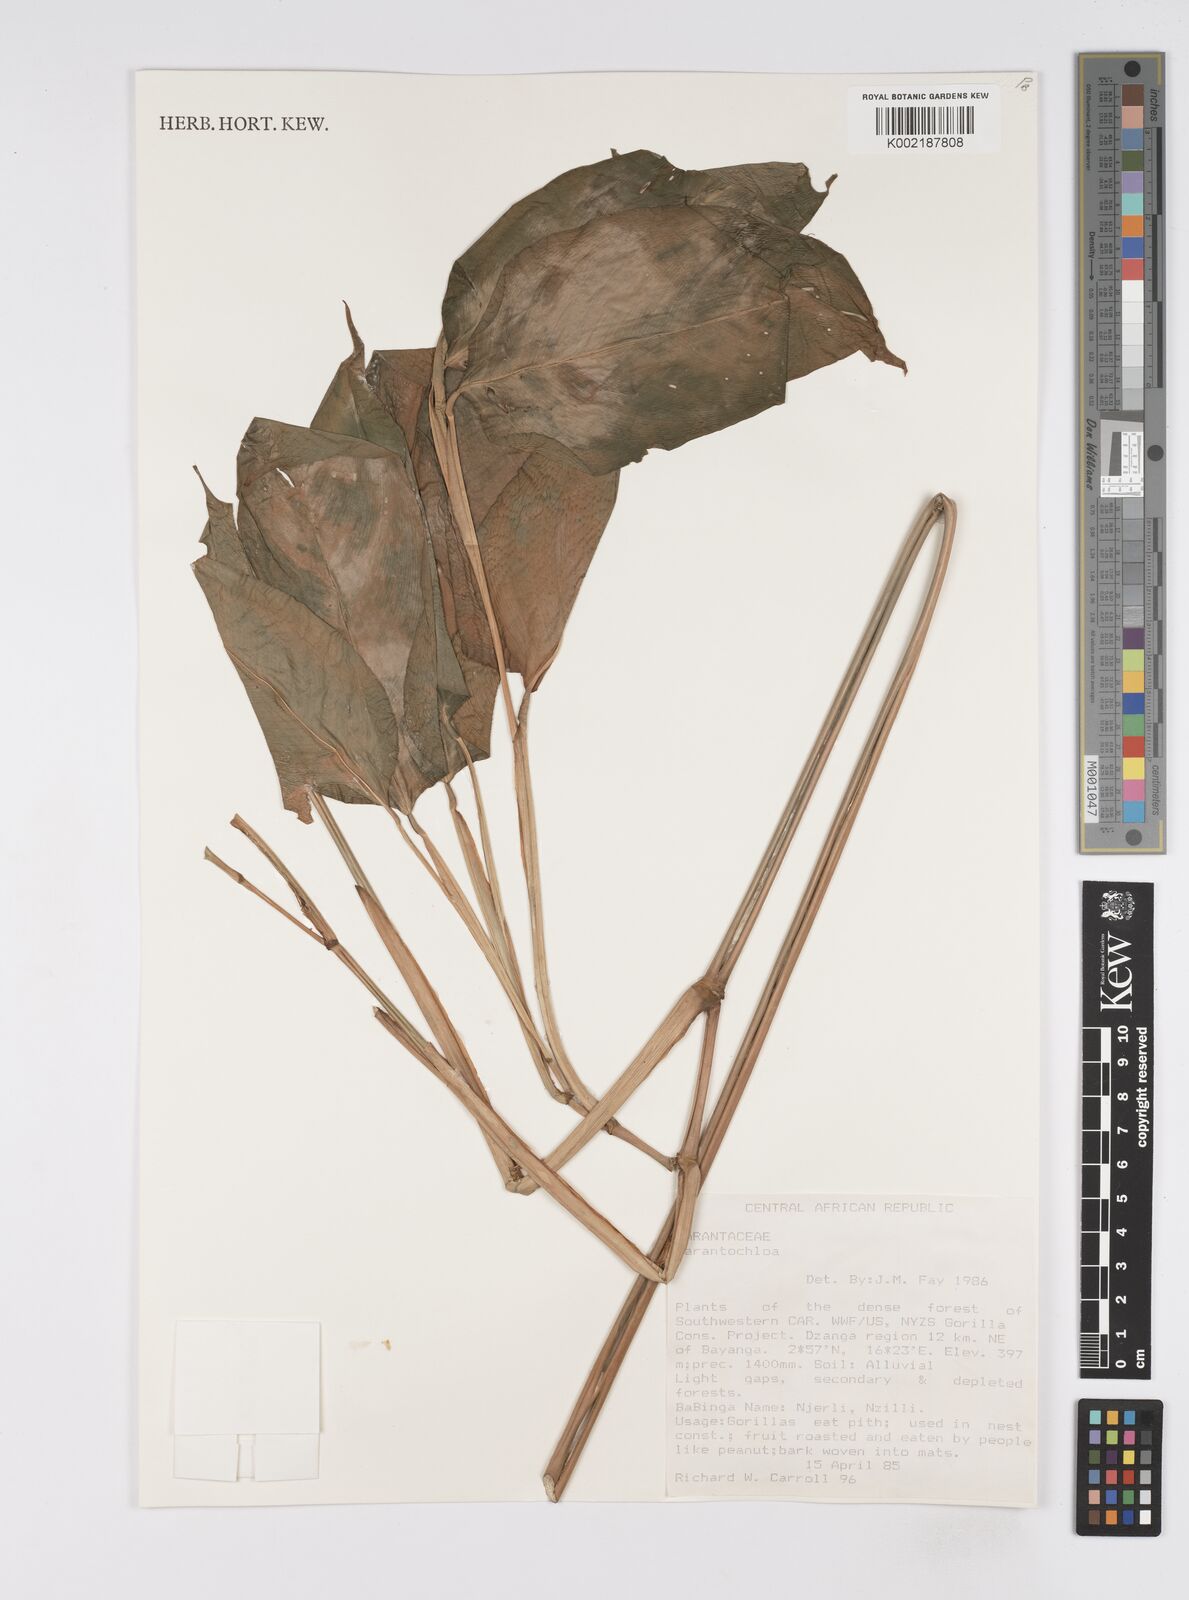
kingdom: Plantae
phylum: Tracheophyta
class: Liliopsida
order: Zingiberales
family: Marantaceae
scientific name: Marantaceae
